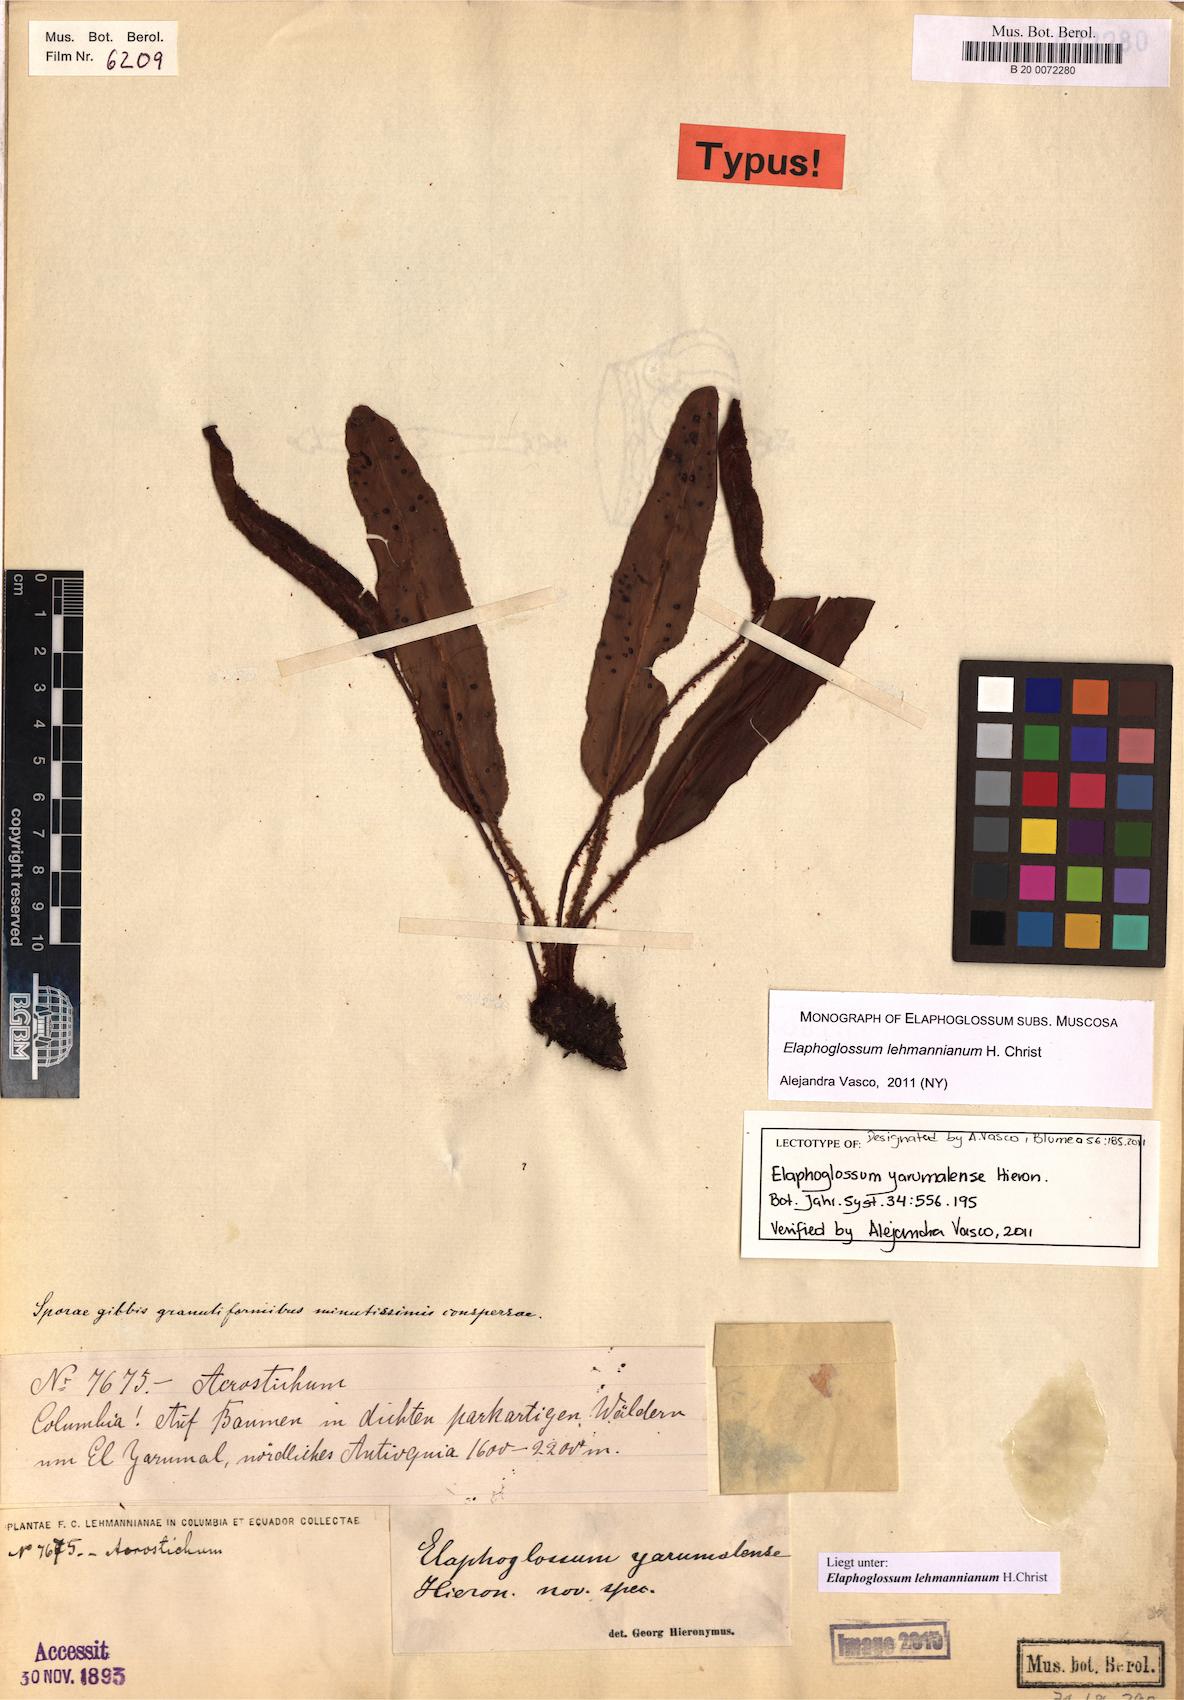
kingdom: Plantae
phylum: Tracheophyta
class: Polypodiopsida
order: Polypodiales
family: Dryopteridaceae
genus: Elaphoglossum
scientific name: Elaphoglossum lehmannianum
